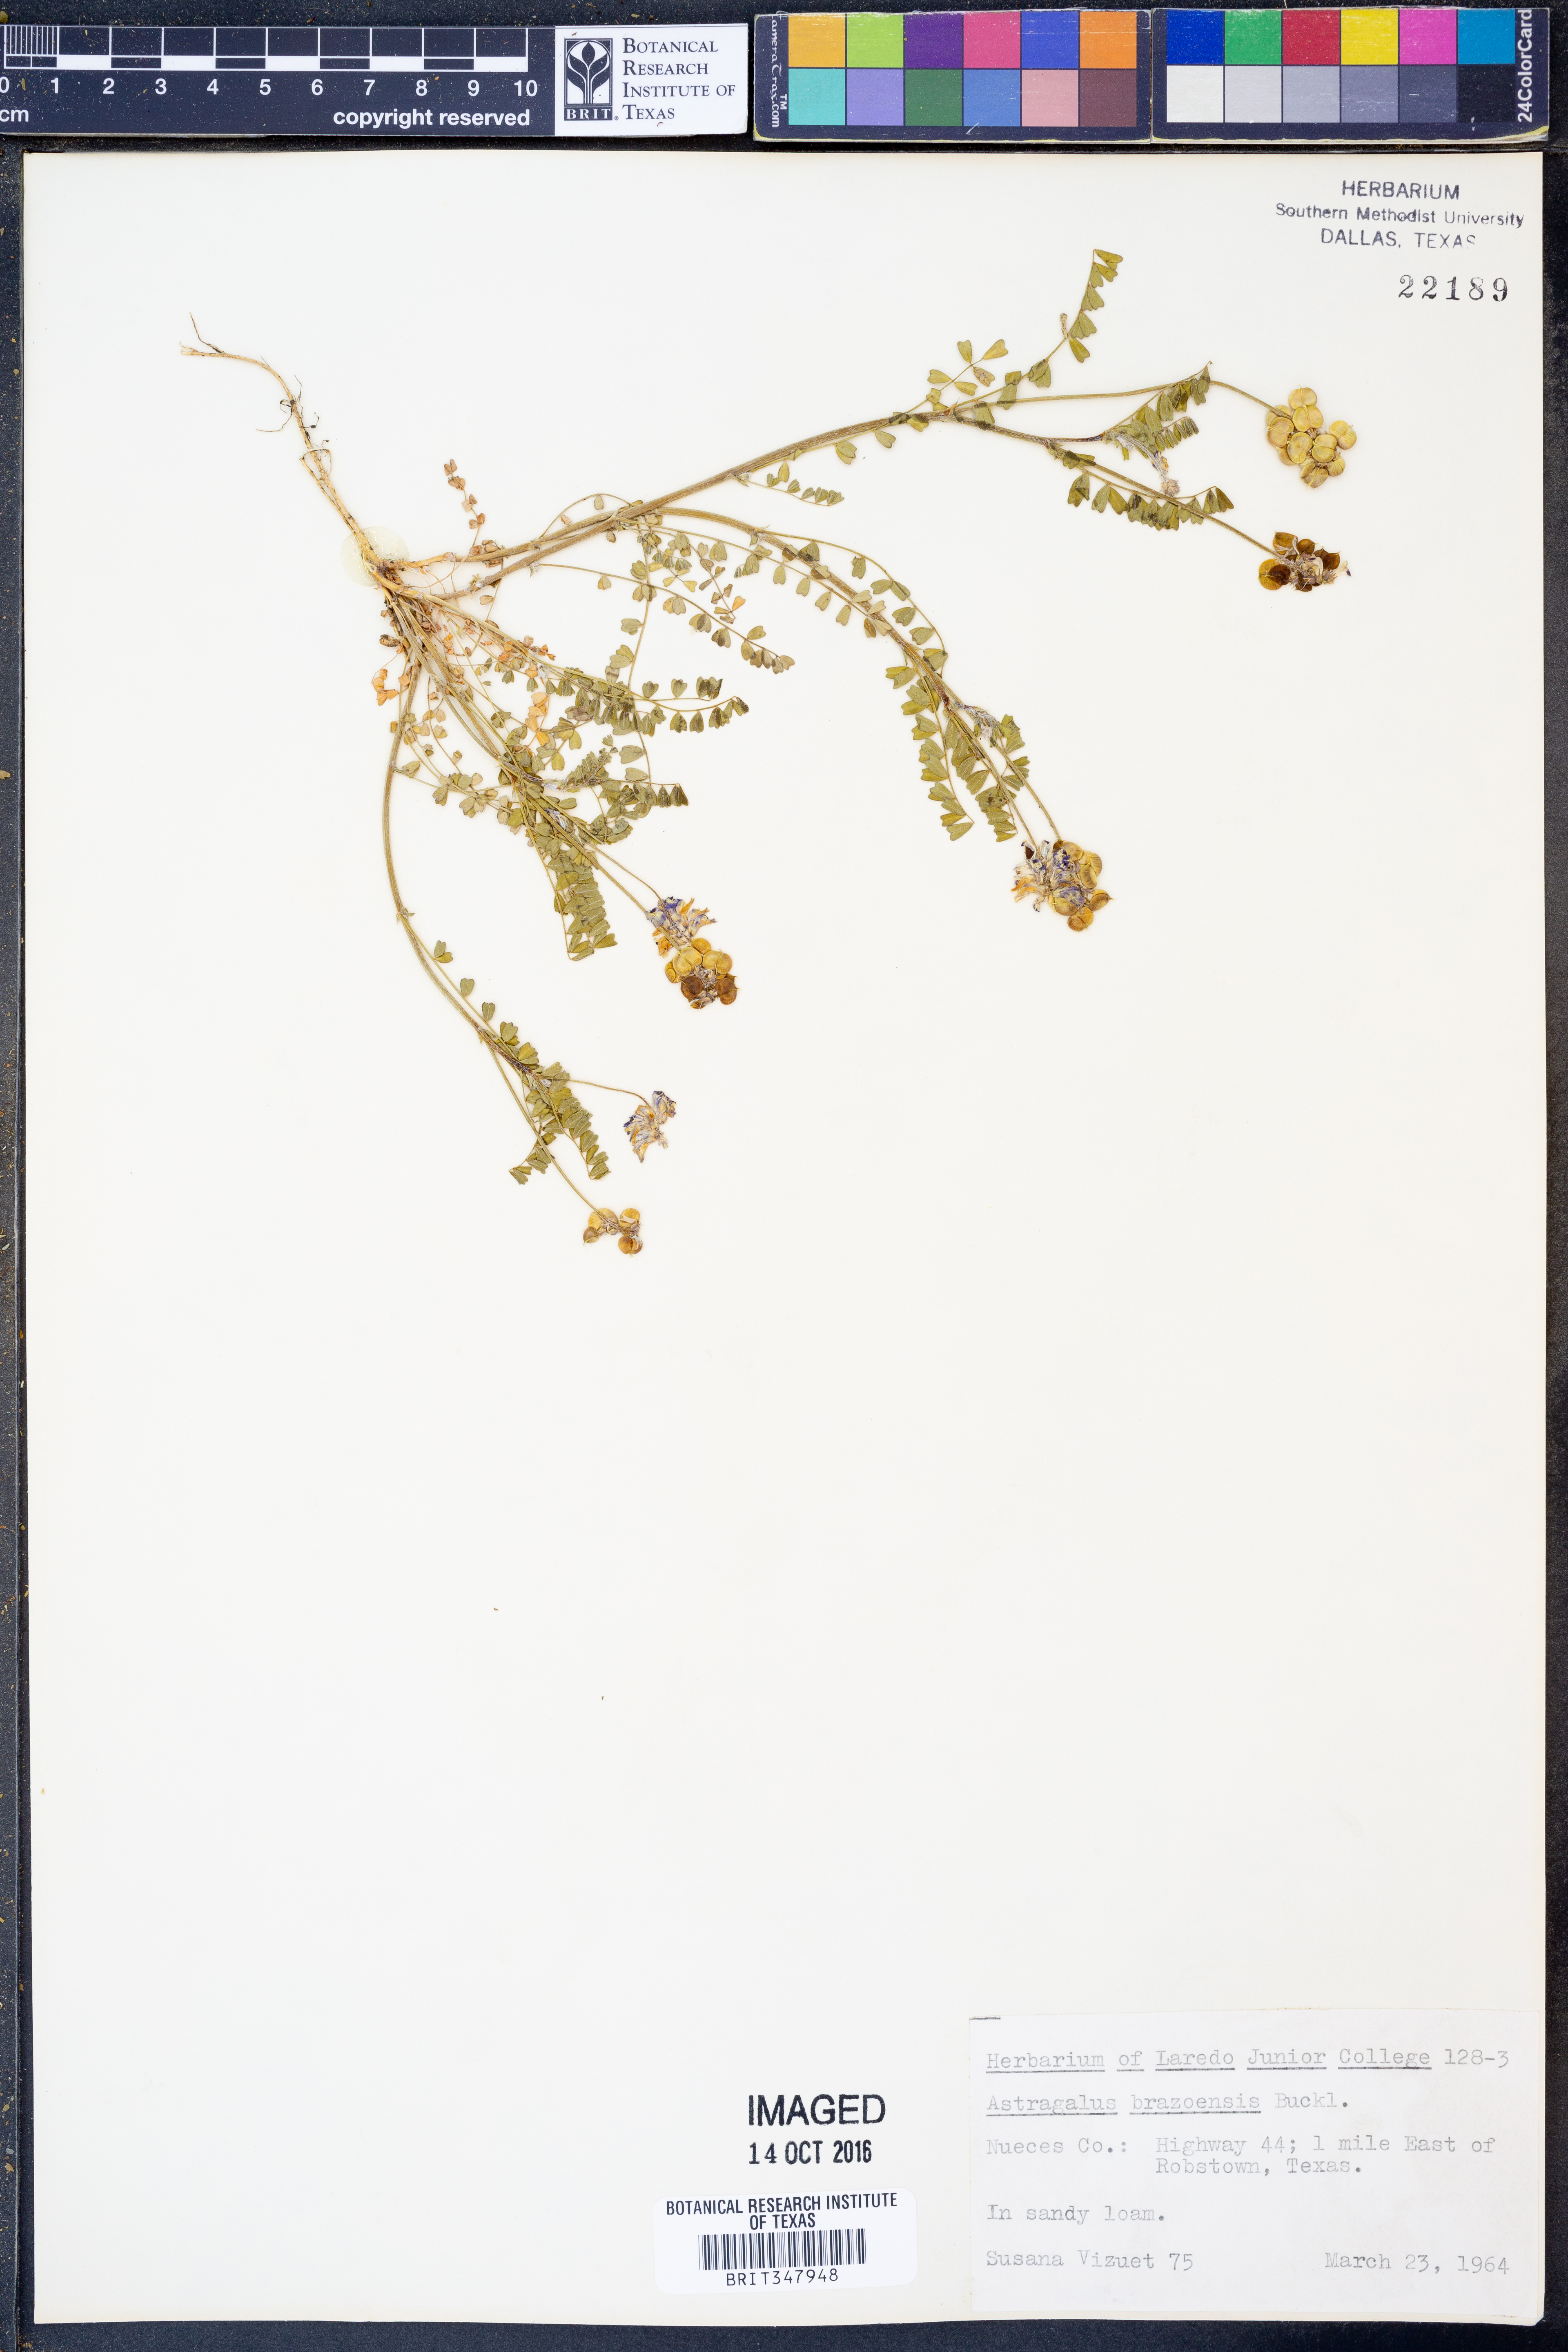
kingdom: Plantae
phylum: Tracheophyta
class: Magnoliopsida
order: Fabales
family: Fabaceae
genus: Astragalus
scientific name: Astragalus brazoensis
